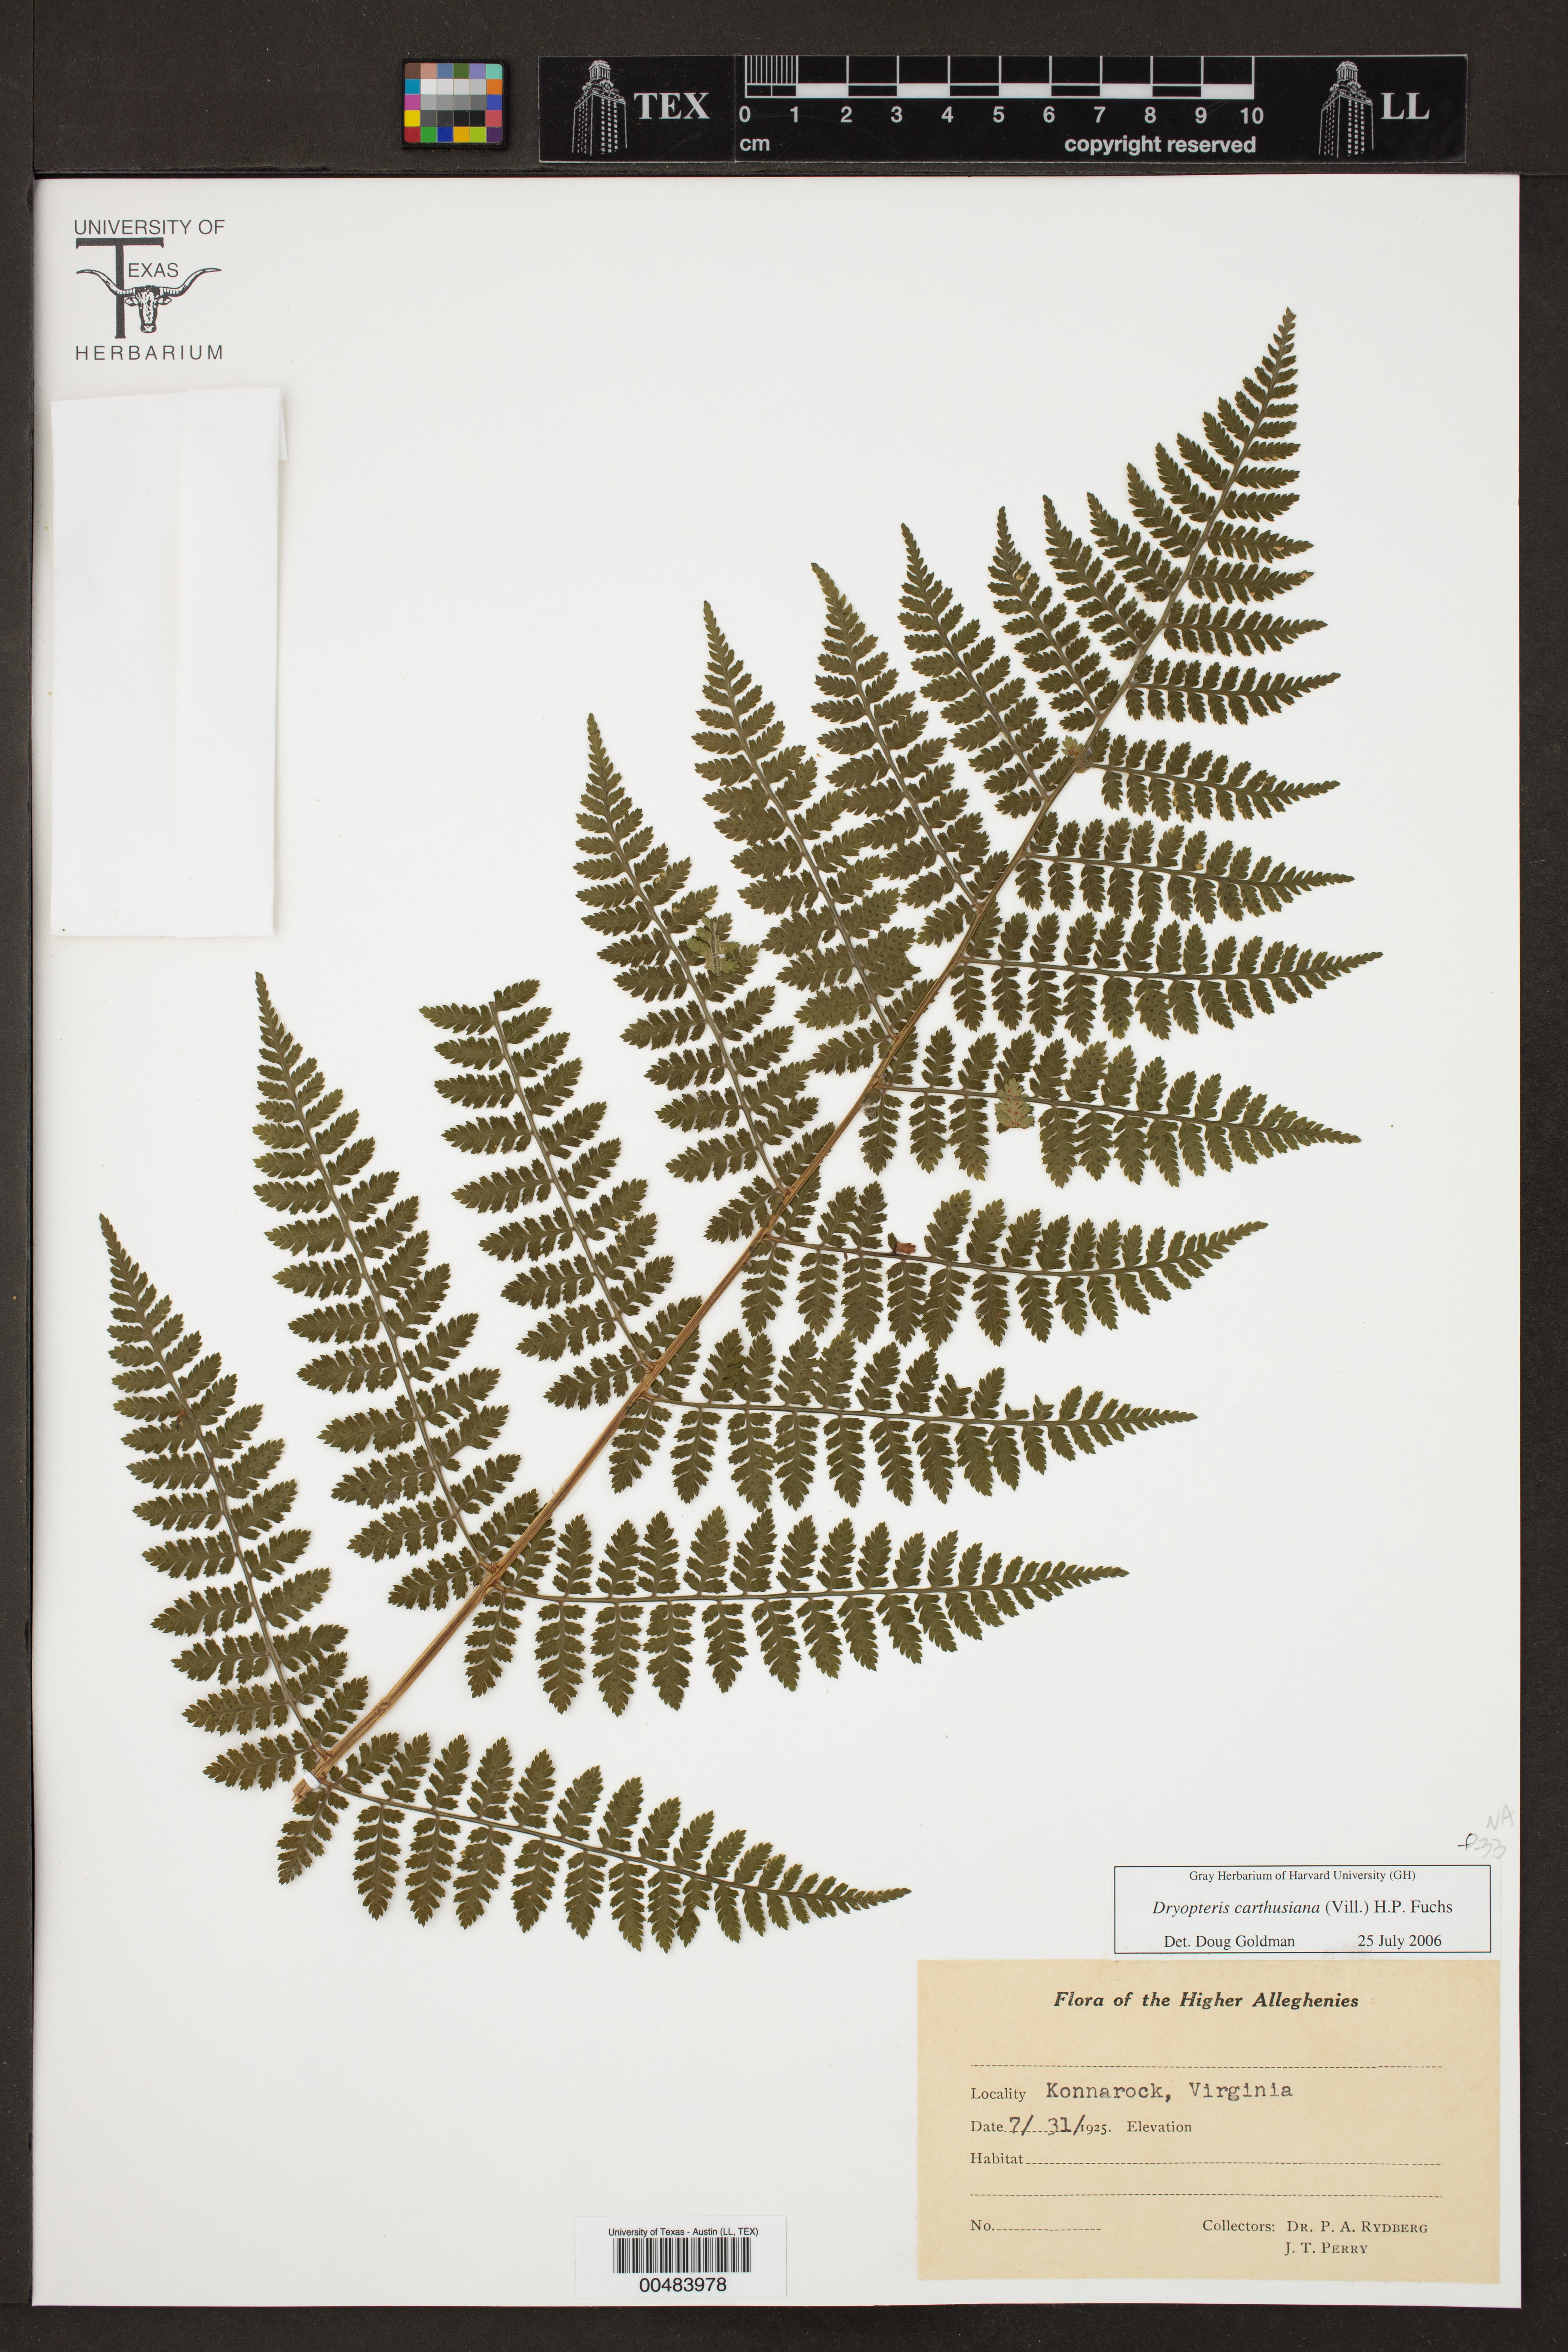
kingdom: Plantae
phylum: Tracheophyta
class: Polypodiopsida
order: Polypodiales
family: Dryopteridaceae
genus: Dryopteris
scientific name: Dryopteris carthusiana
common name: Narrow buckler-fern
